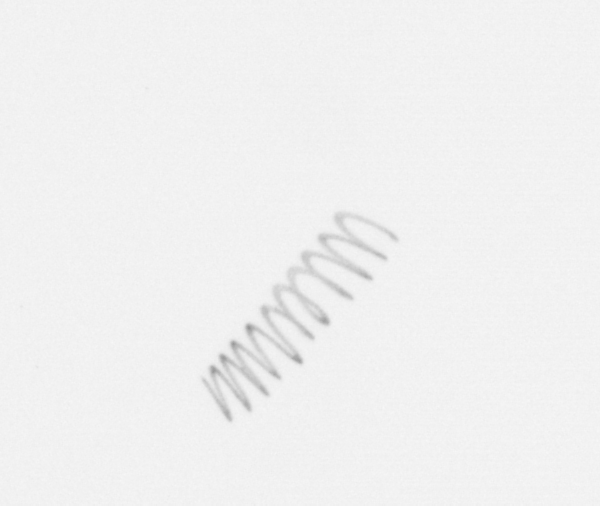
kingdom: Chromista
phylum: Ochrophyta
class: Bacillariophyceae
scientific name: Bacillariophyceae
